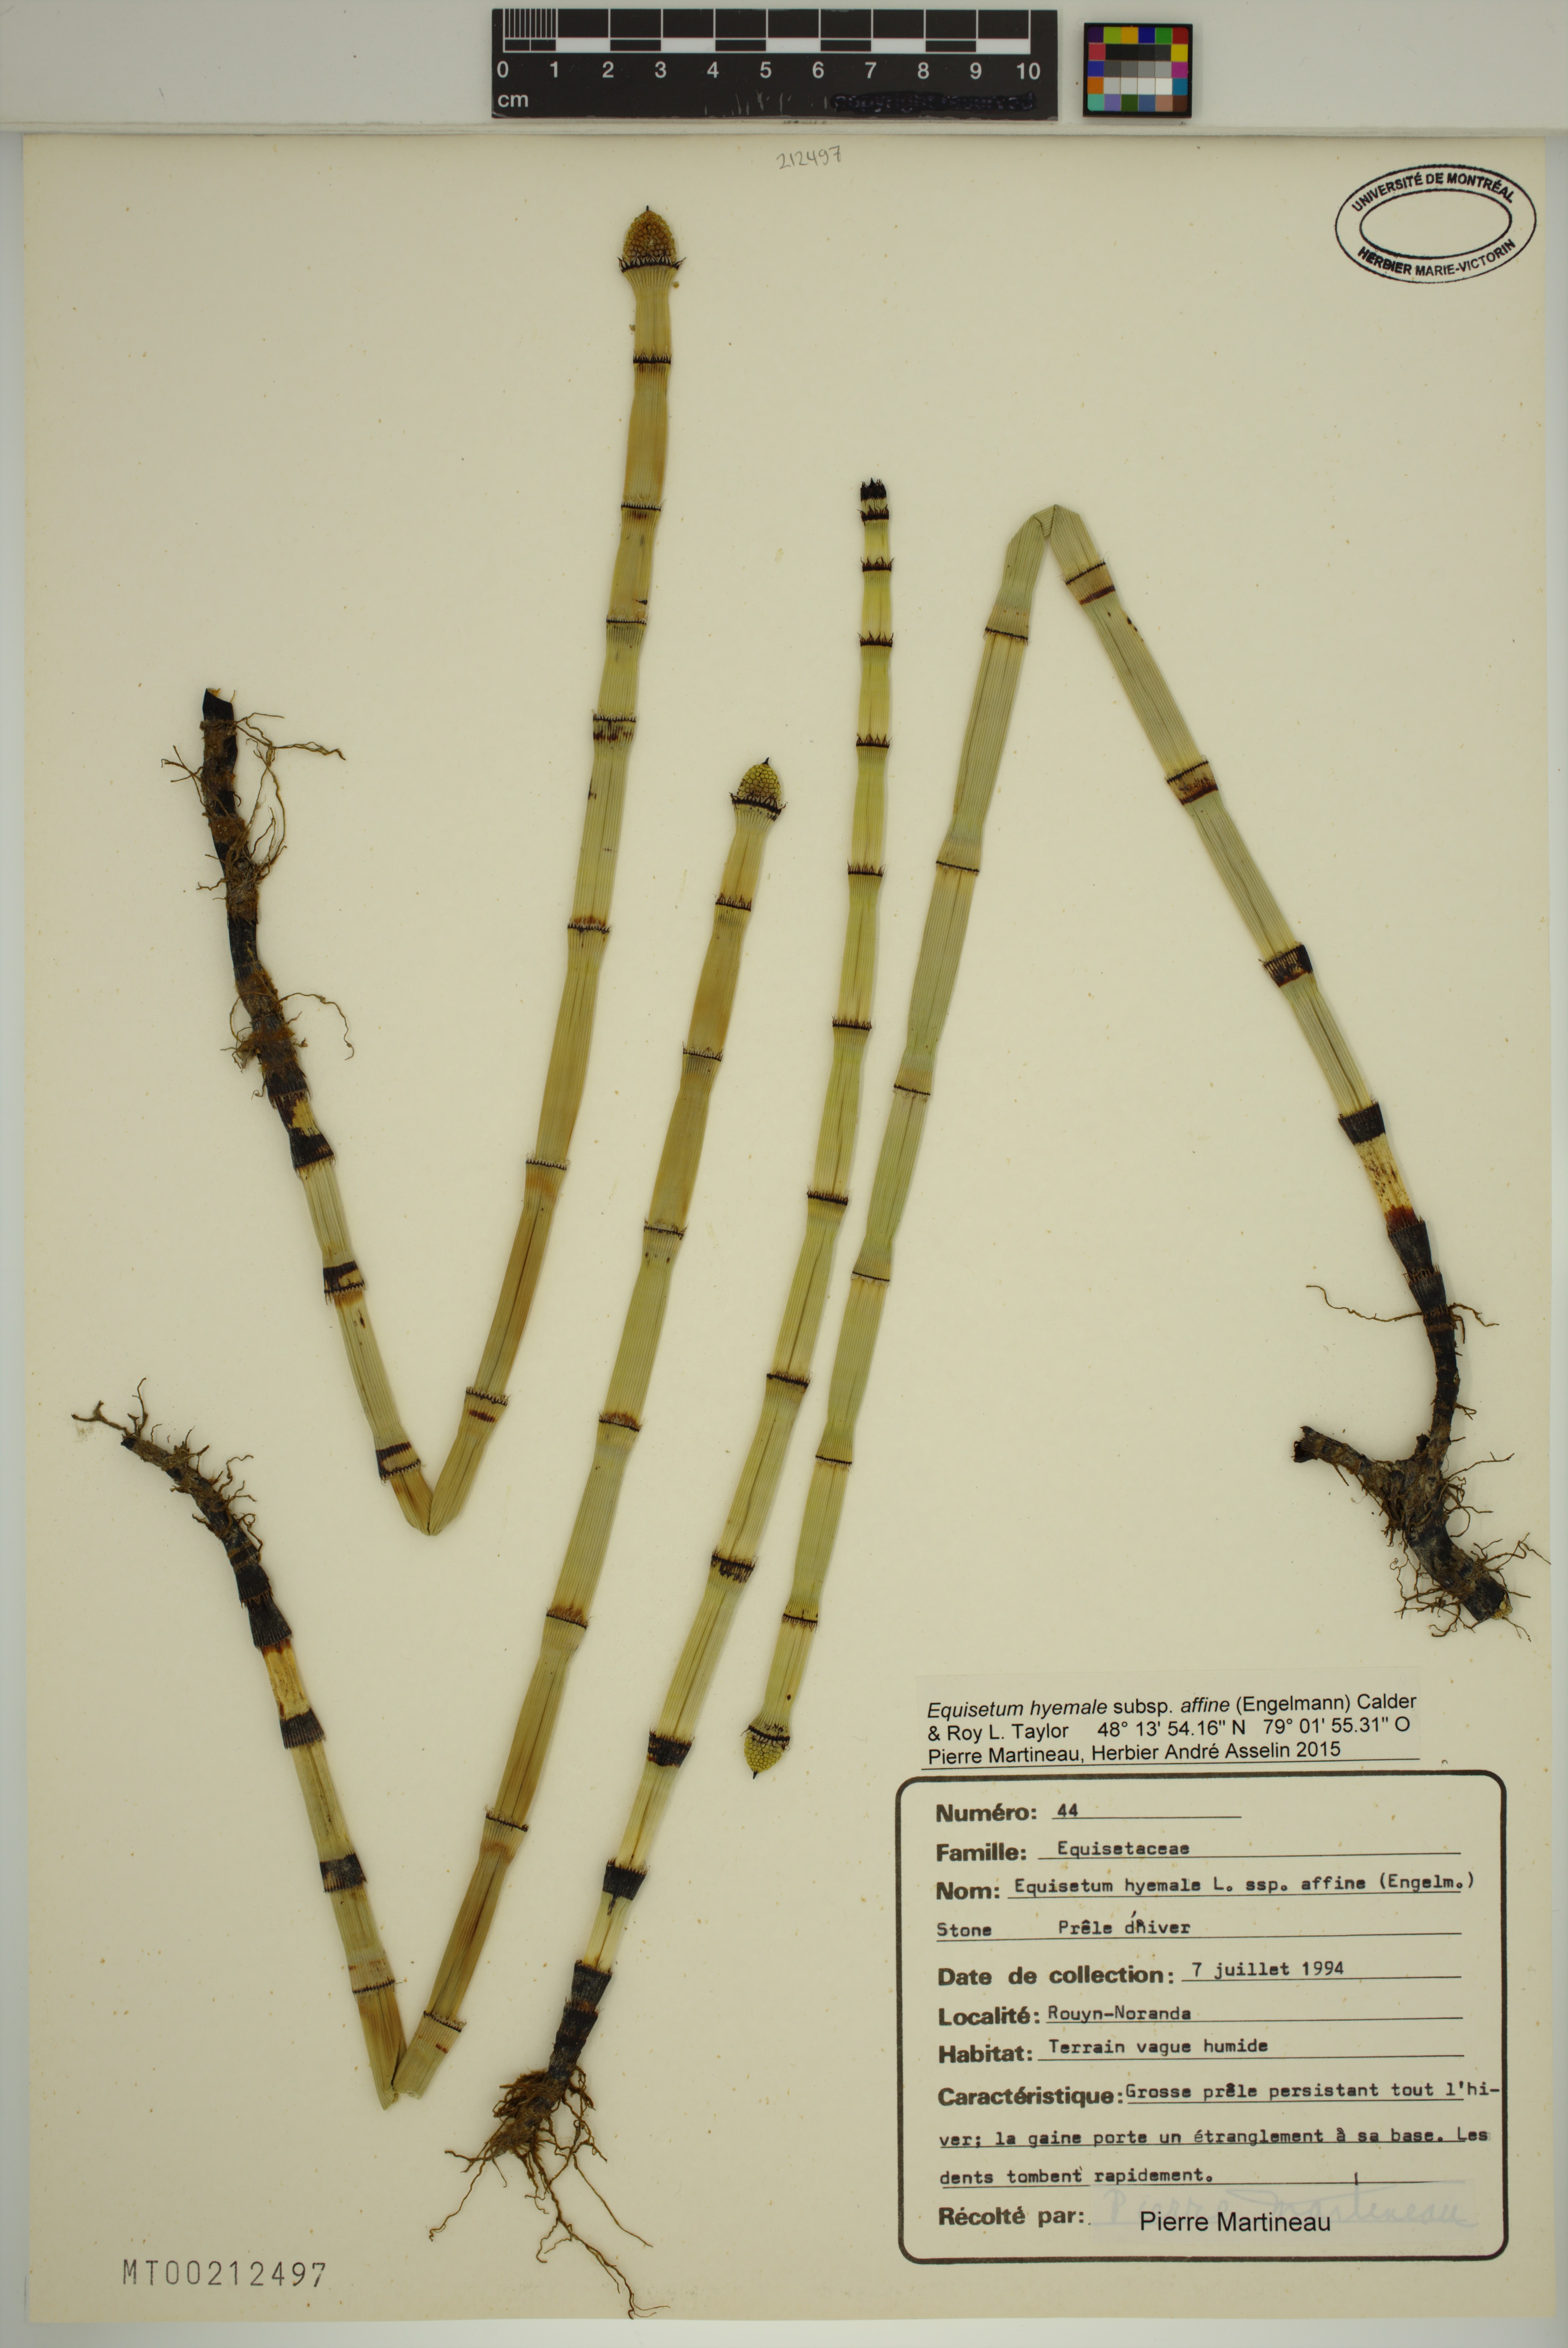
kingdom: Plantae
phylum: Tracheophyta
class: Polypodiopsida
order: Equisetales
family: Equisetaceae
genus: Equisetum
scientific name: Equisetum praealtum
